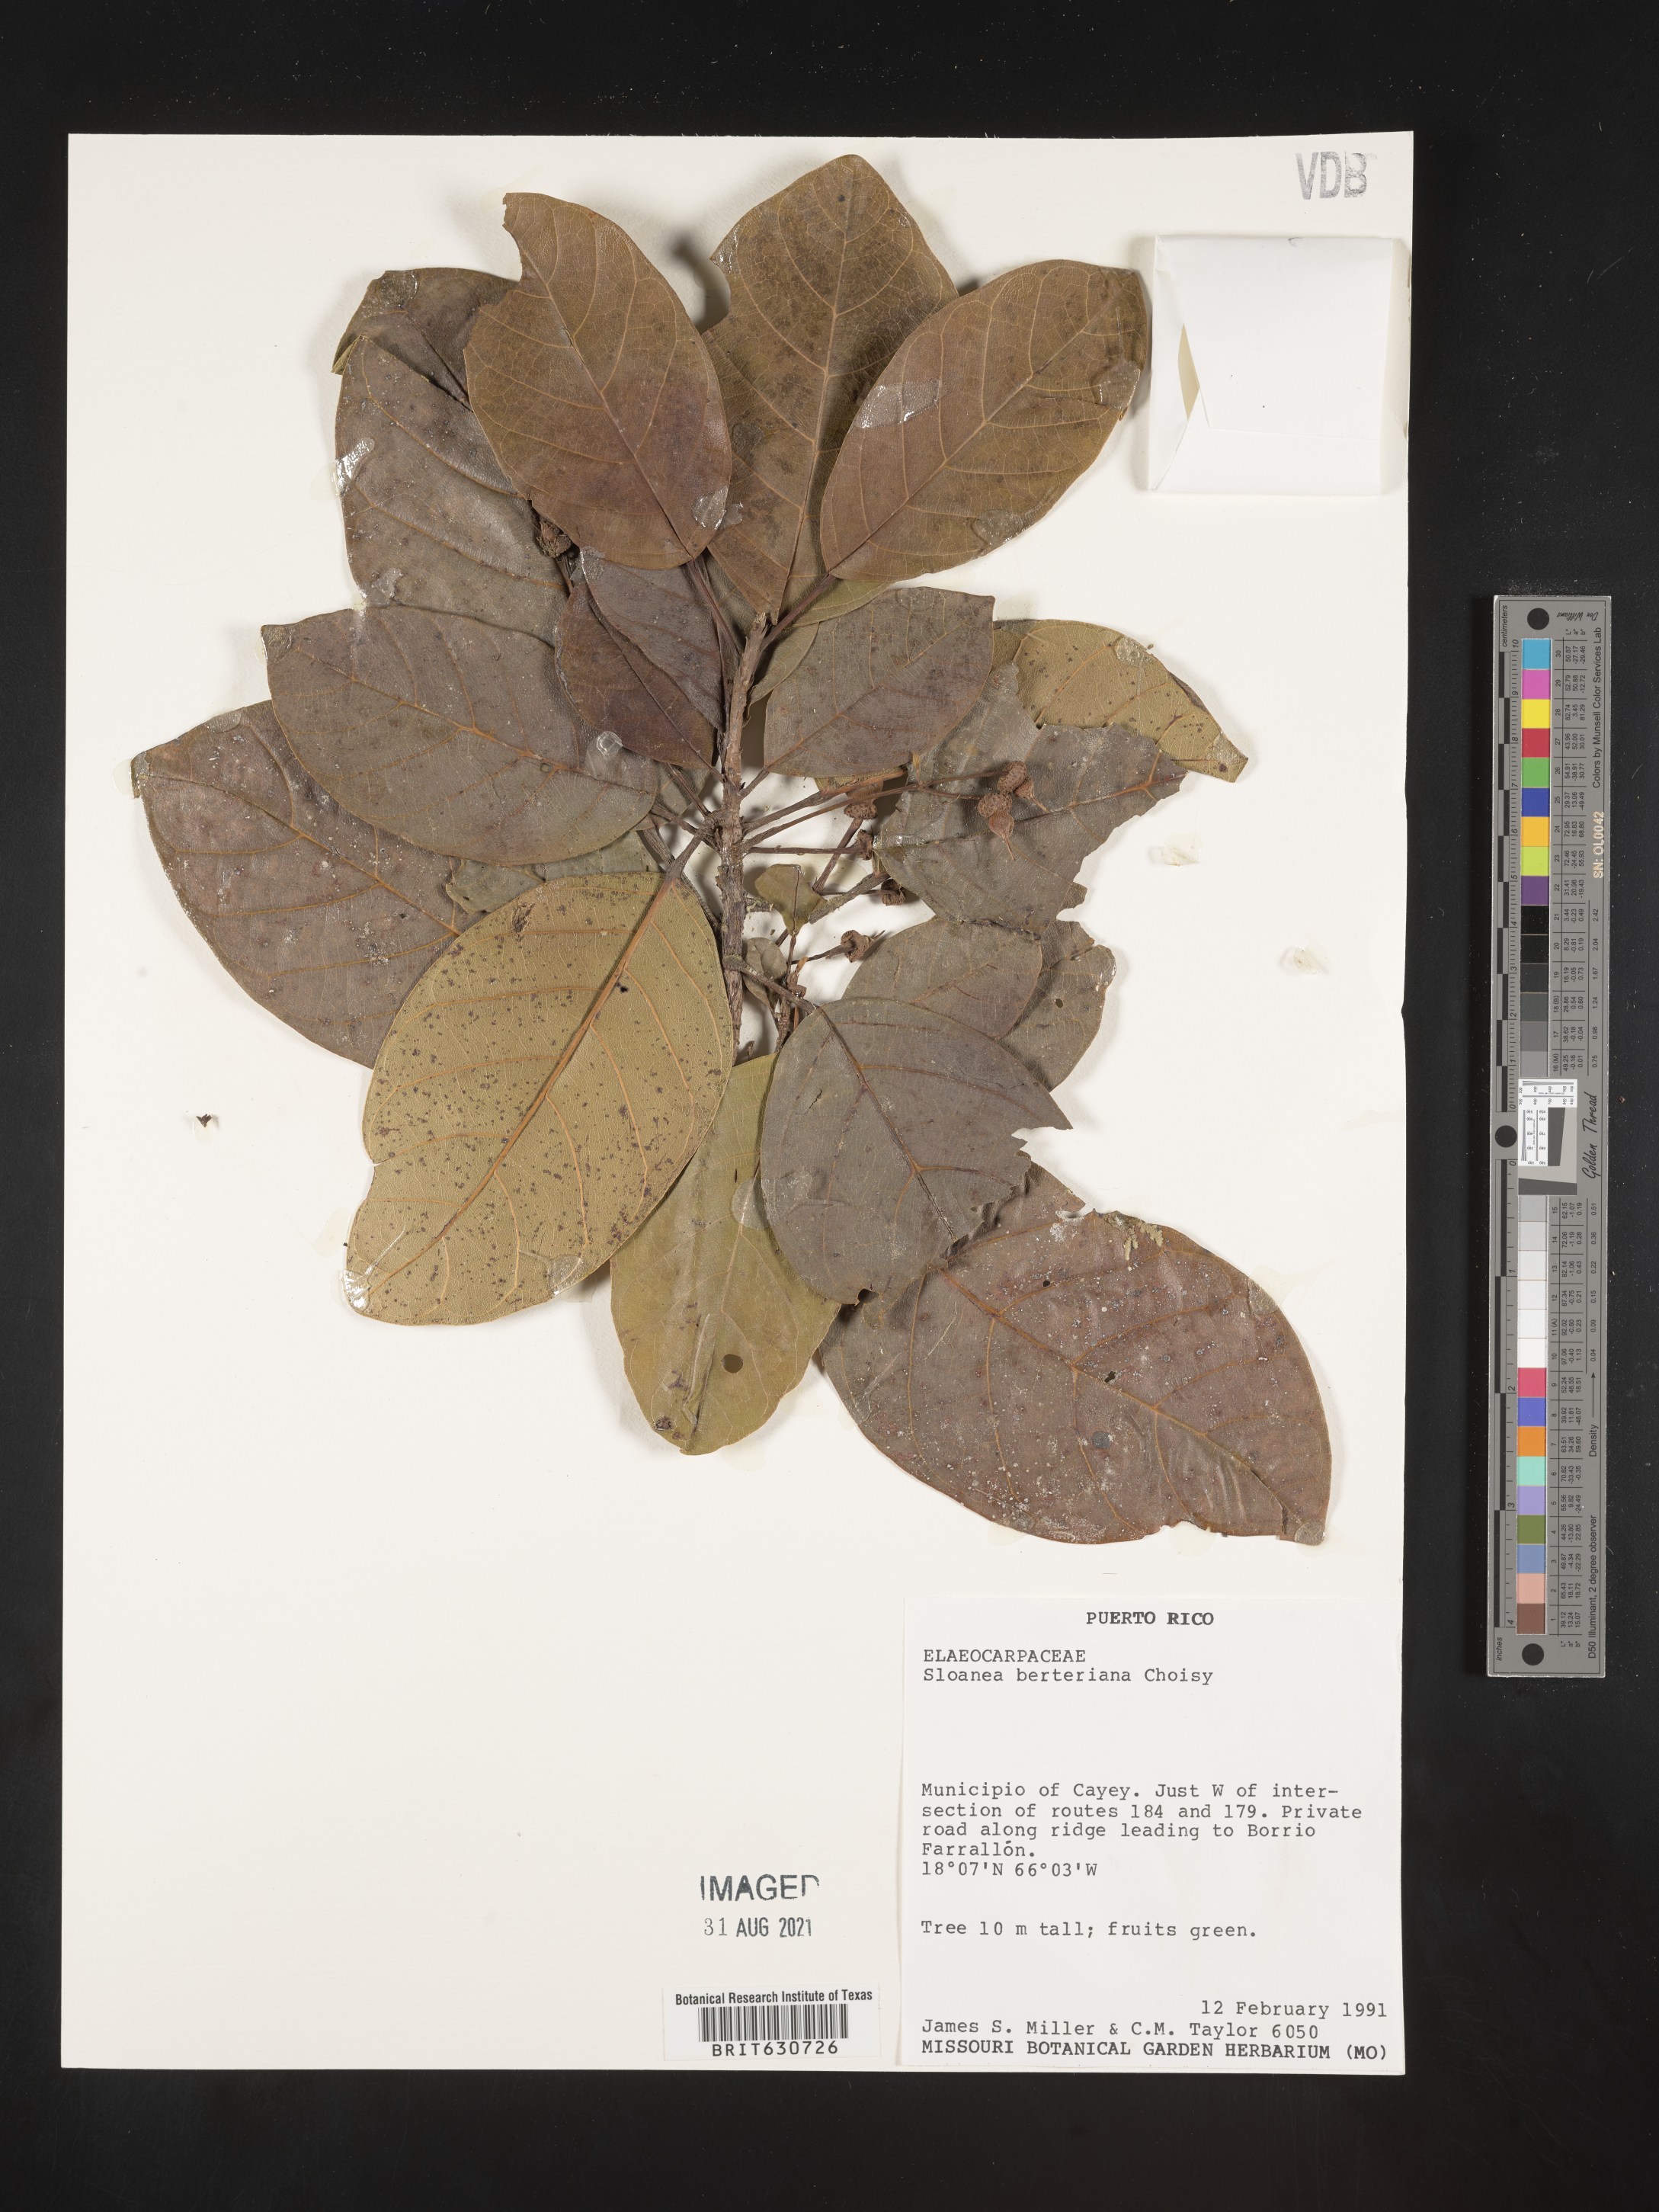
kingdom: Plantae
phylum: Tracheophyta
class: Magnoliopsida
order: Oxalidales
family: Elaeocarpaceae
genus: Sloanea
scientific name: Sloanea
